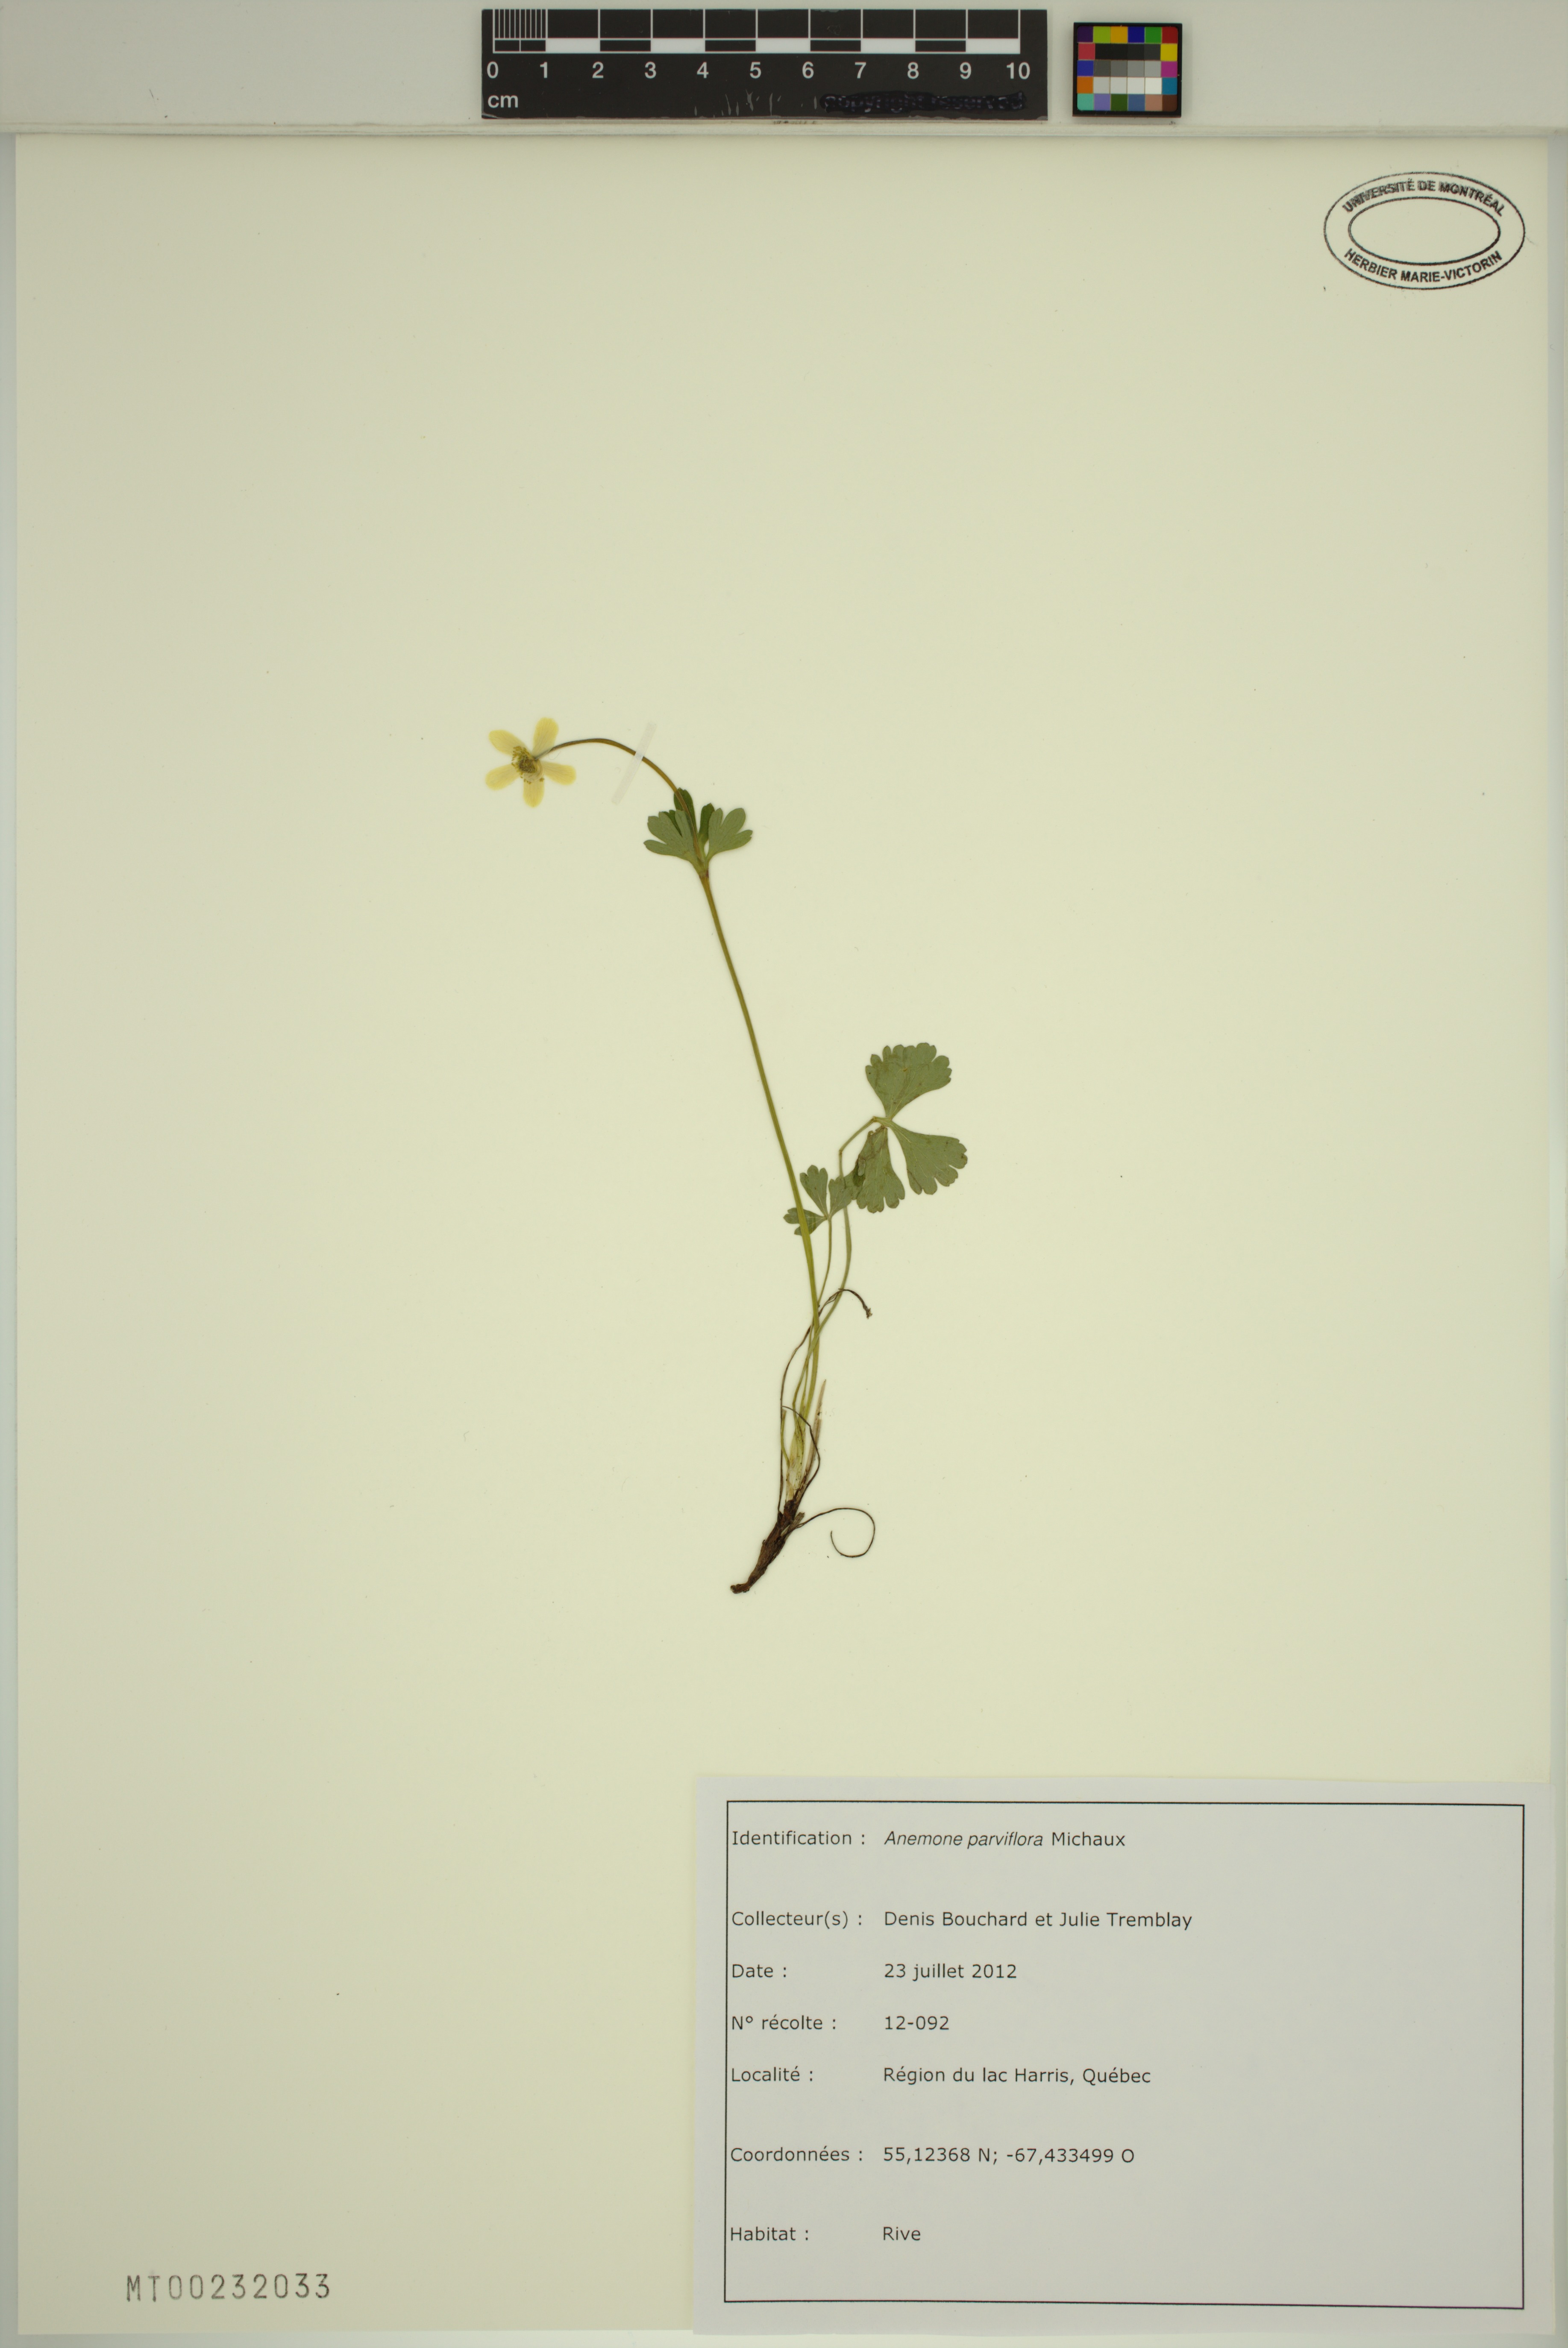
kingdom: Plantae
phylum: Tracheophyta
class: Magnoliopsida
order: Ranunculales
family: Ranunculaceae
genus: Anemone
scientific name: Anemone parviflora
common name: Northern anemone
